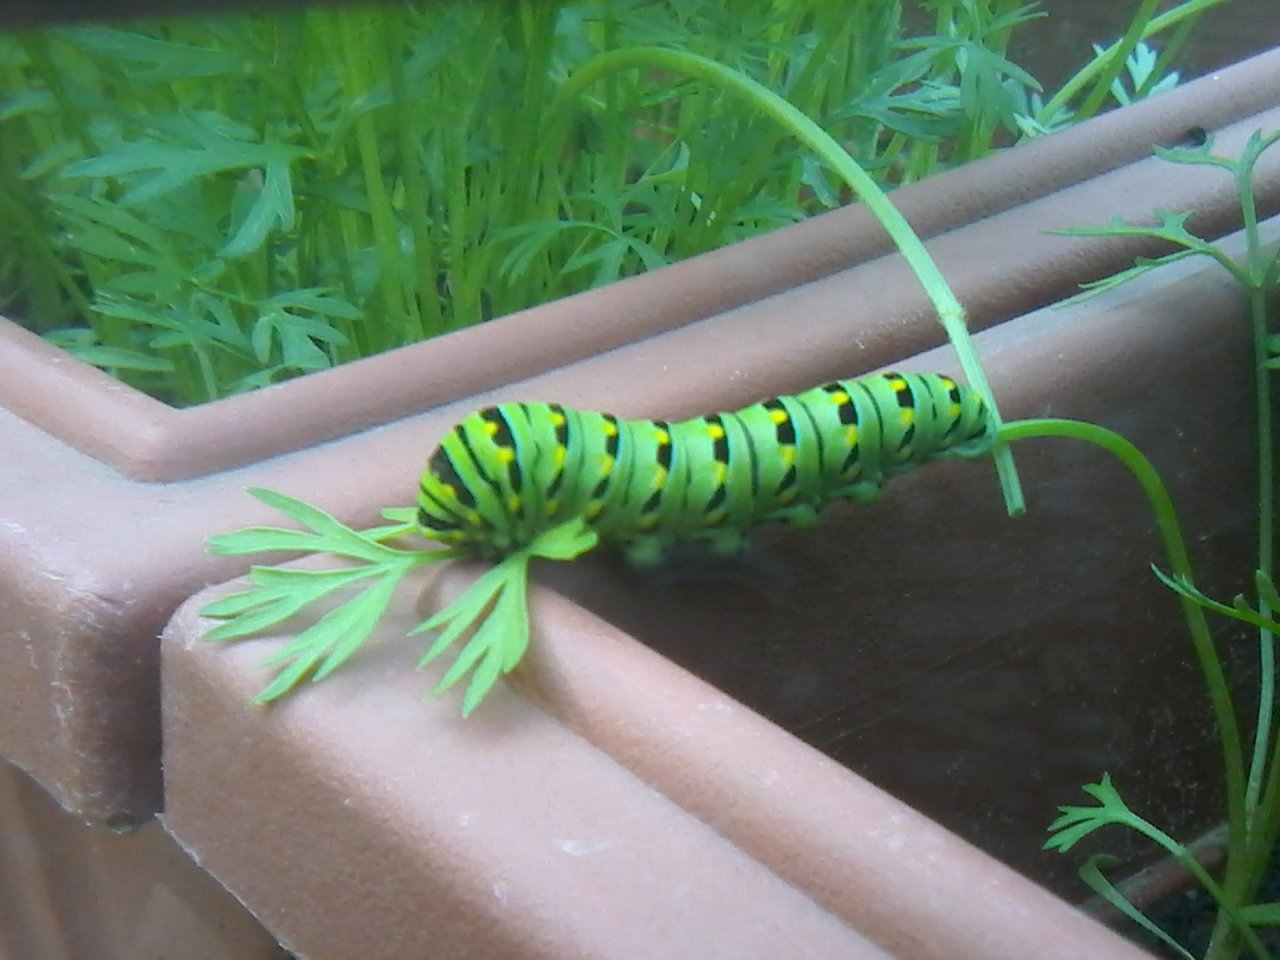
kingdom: Animalia
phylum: Arthropoda
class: Insecta
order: Lepidoptera
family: Papilionidae
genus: Papilio
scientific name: Papilio polyxenes
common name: Black Swallowtail
